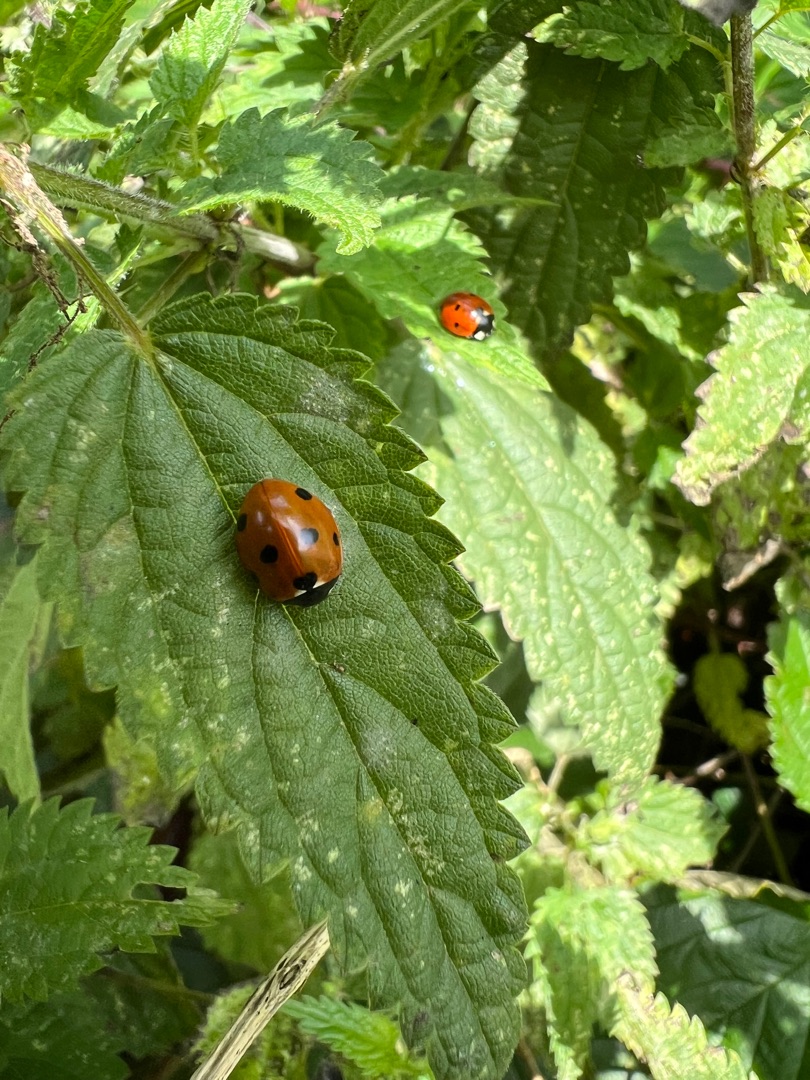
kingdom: Animalia
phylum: Arthropoda
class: Insecta
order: Coleoptera
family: Coccinellidae
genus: Coccinella
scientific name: Coccinella septempunctata
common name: Syvplettet mariehøne
